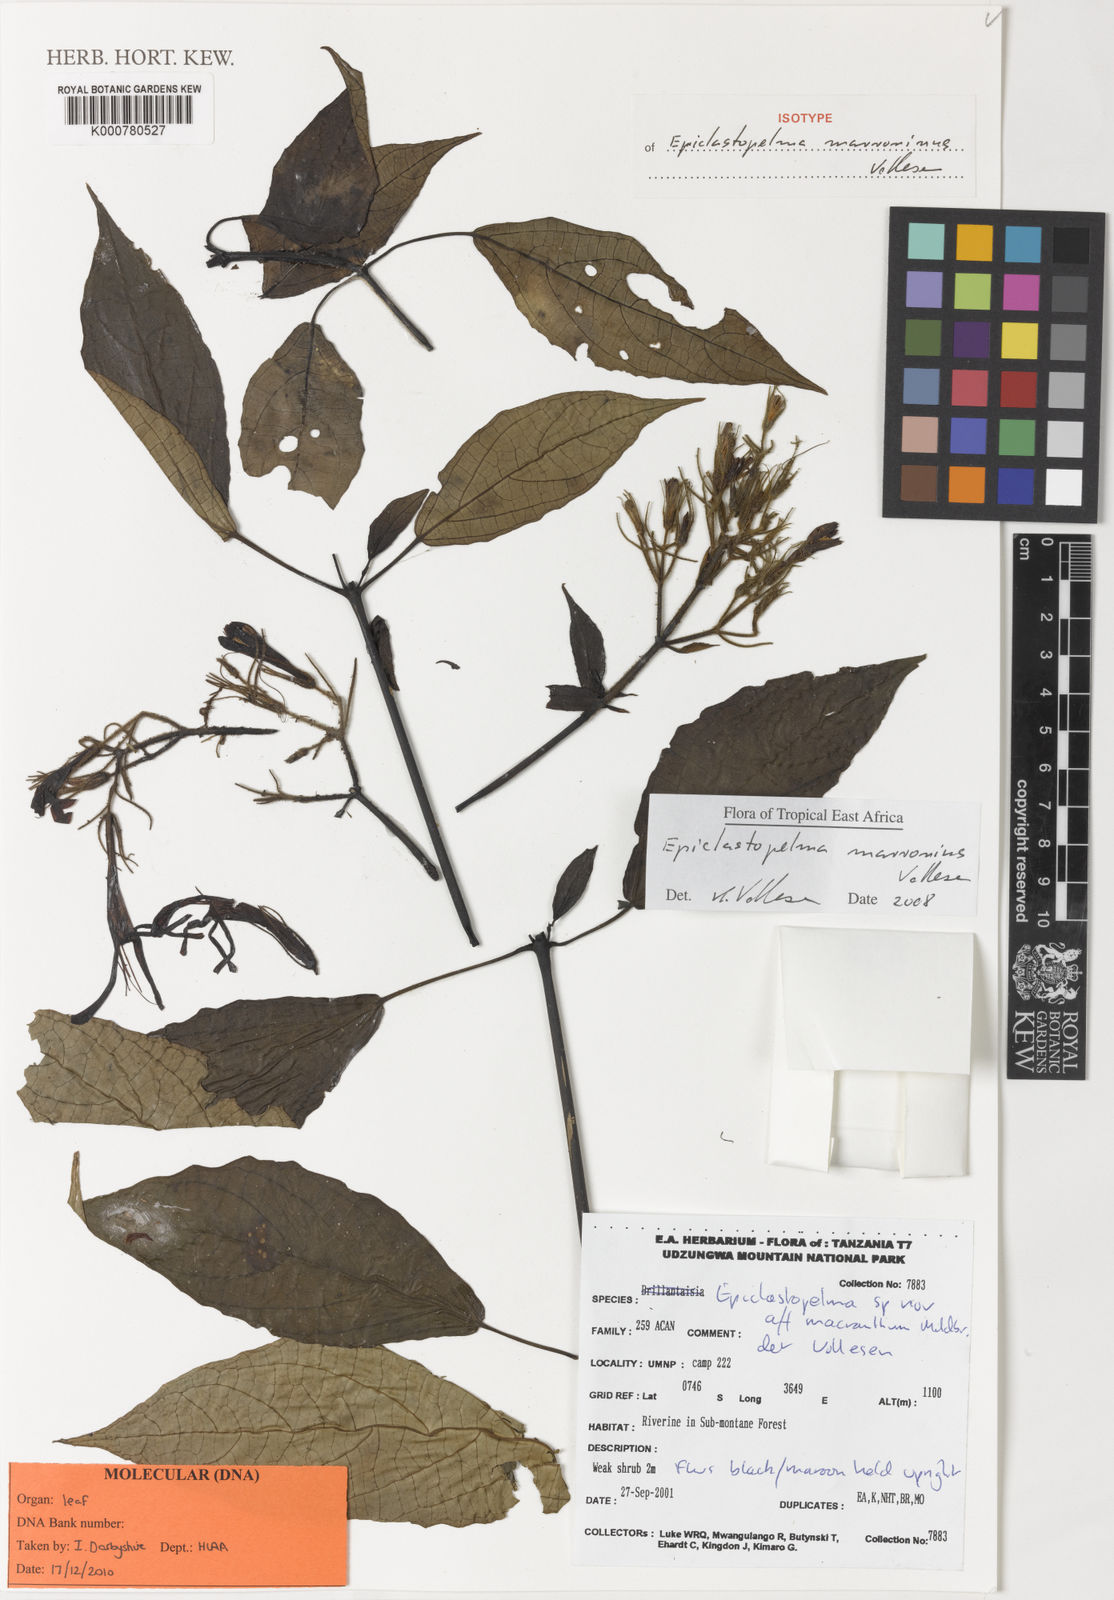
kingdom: Plantae
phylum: Tracheophyta
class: Magnoliopsida
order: Lamiales
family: Acanthaceae
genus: Mimulopsis
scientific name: Mimulopsis marronina
